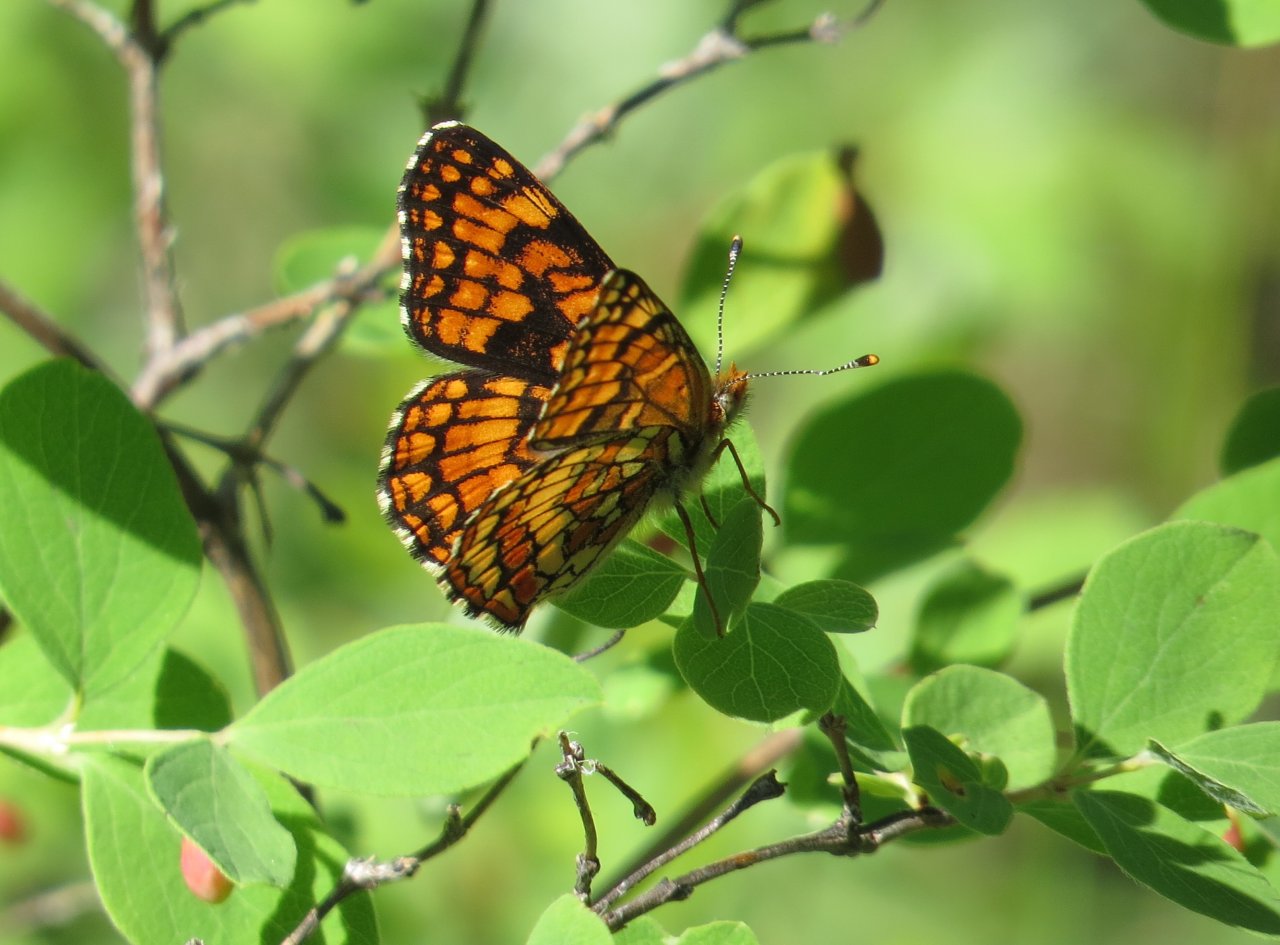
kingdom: Animalia
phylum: Arthropoda
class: Insecta
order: Lepidoptera
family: Nymphalidae
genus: Chlosyne
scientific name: Chlosyne palla
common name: Northern Checkerspot
